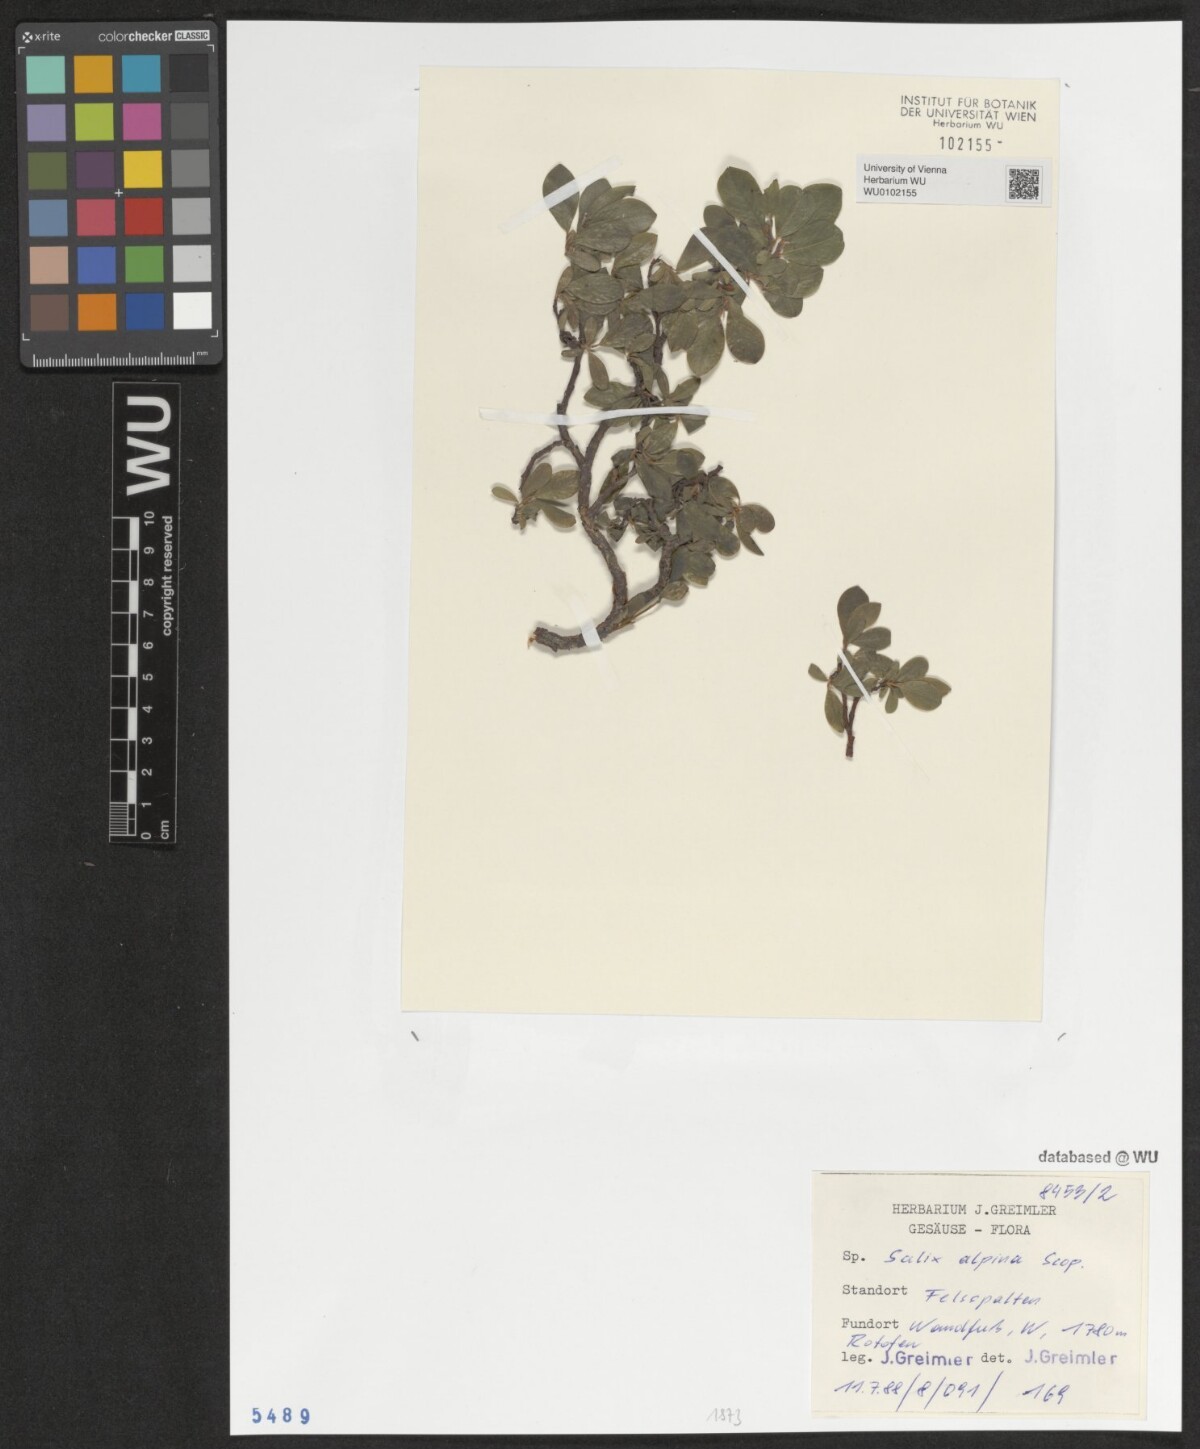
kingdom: Plantae
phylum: Tracheophyta
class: Magnoliopsida
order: Malpighiales
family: Salicaceae
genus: Salix
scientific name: Salix alpina
